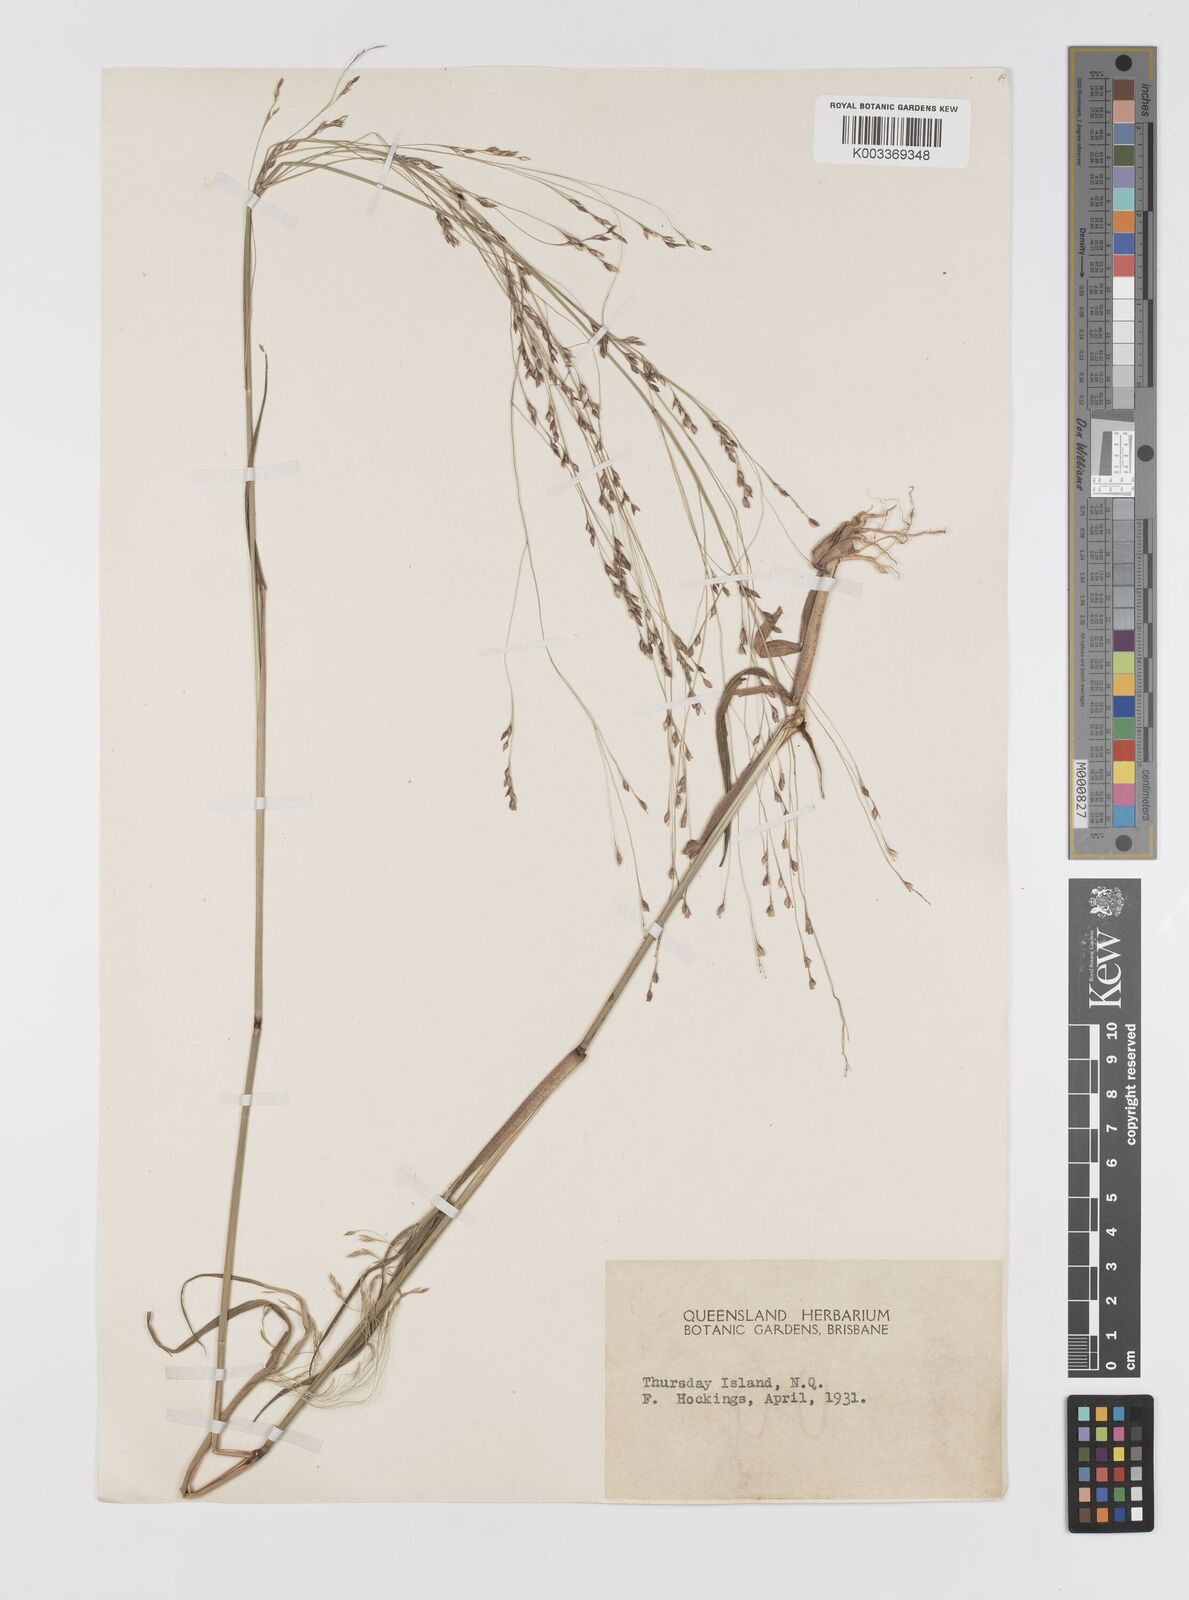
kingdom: Plantae
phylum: Tracheophyta
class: Liliopsida
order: Poales
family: Poaceae
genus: Panicum
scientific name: Panicum seminudum
